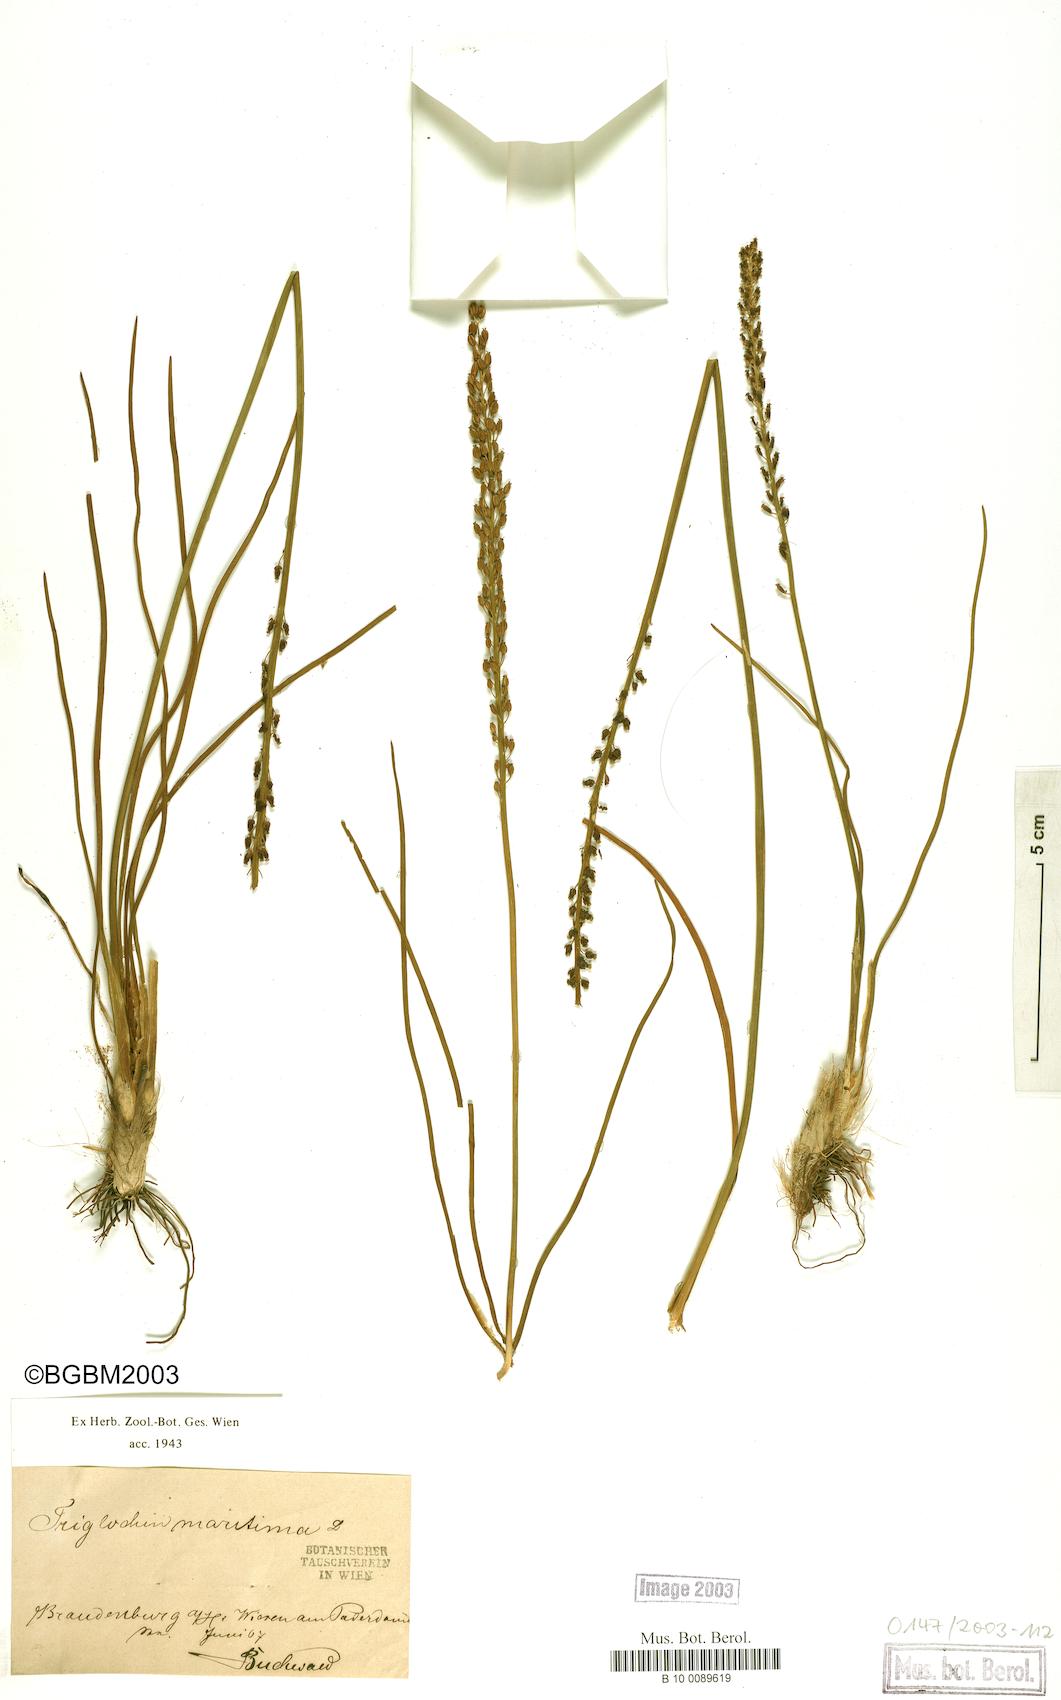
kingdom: Plantae
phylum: Tracheophyta
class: Liliopsida
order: Alismatales
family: Juncaginaceae
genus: Triglochin
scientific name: Triglochin maritima
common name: Sea arrowgrass
